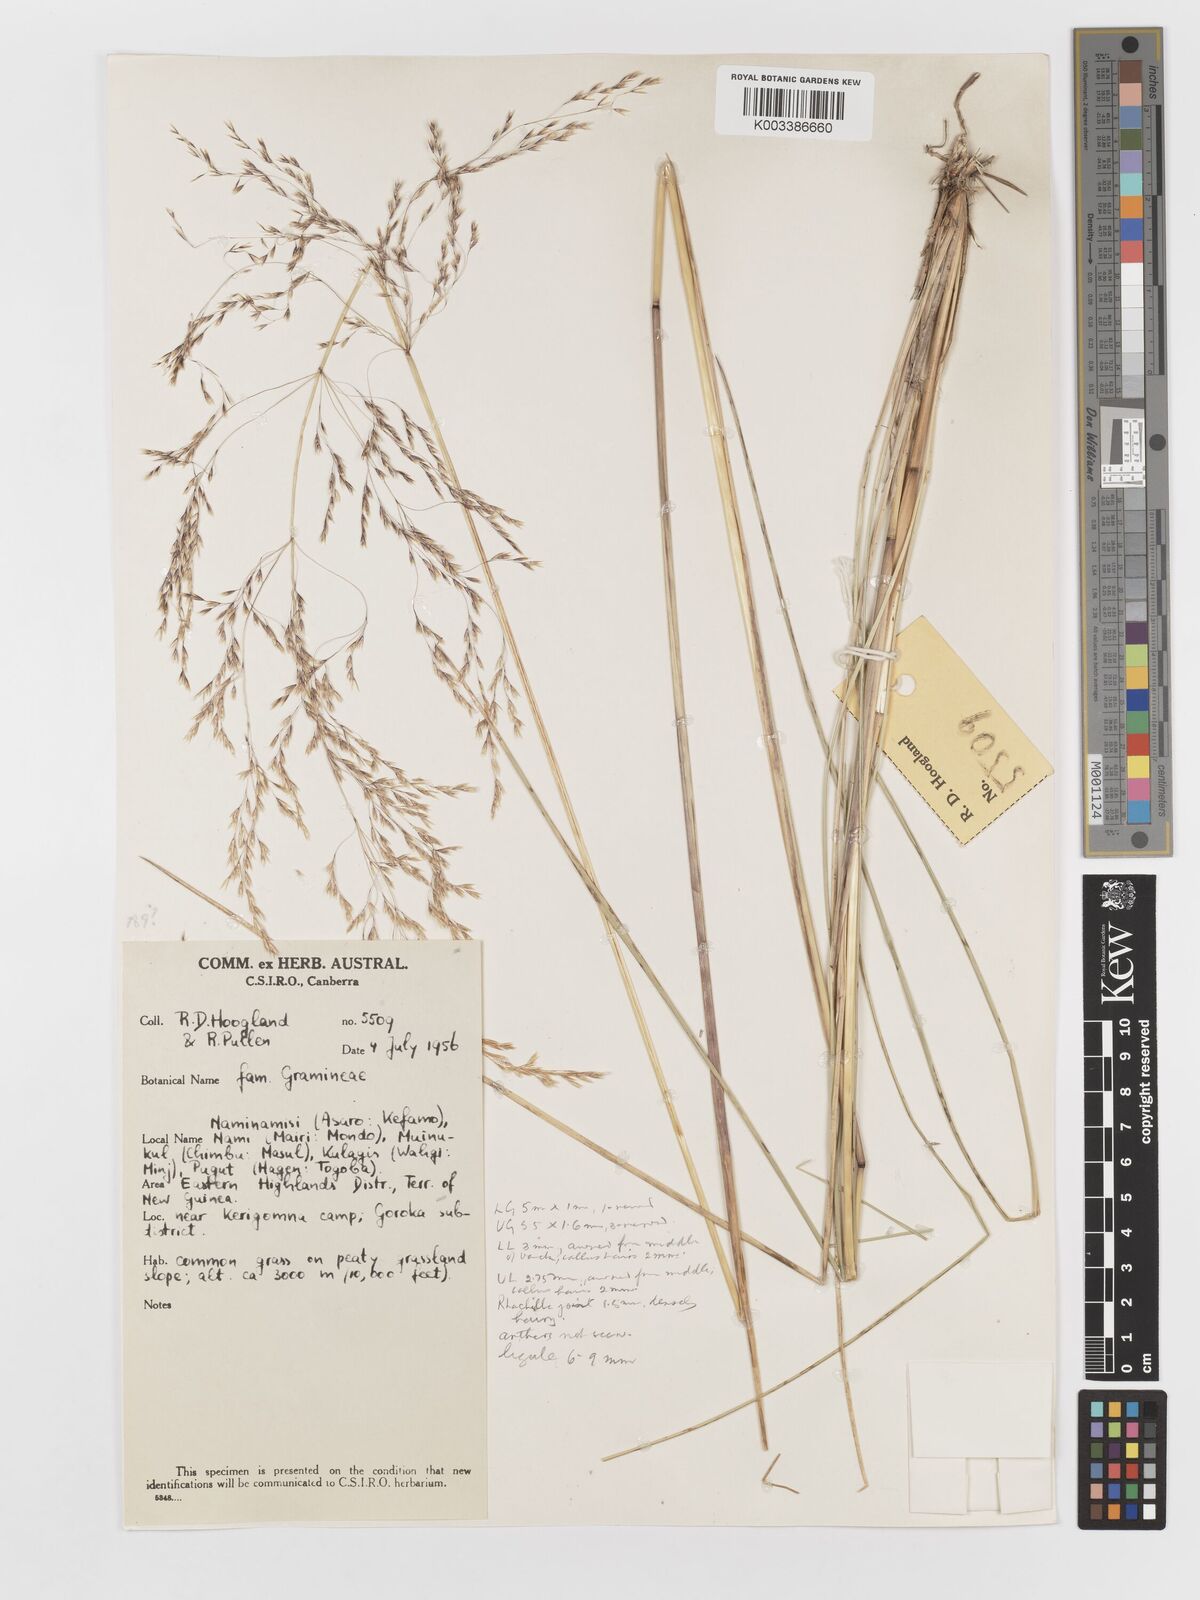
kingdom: Plantae
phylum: Tracheophyta
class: Liliopsida
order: Poales
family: Poaceae
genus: Deschampsia
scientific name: Deschampsia klossii
